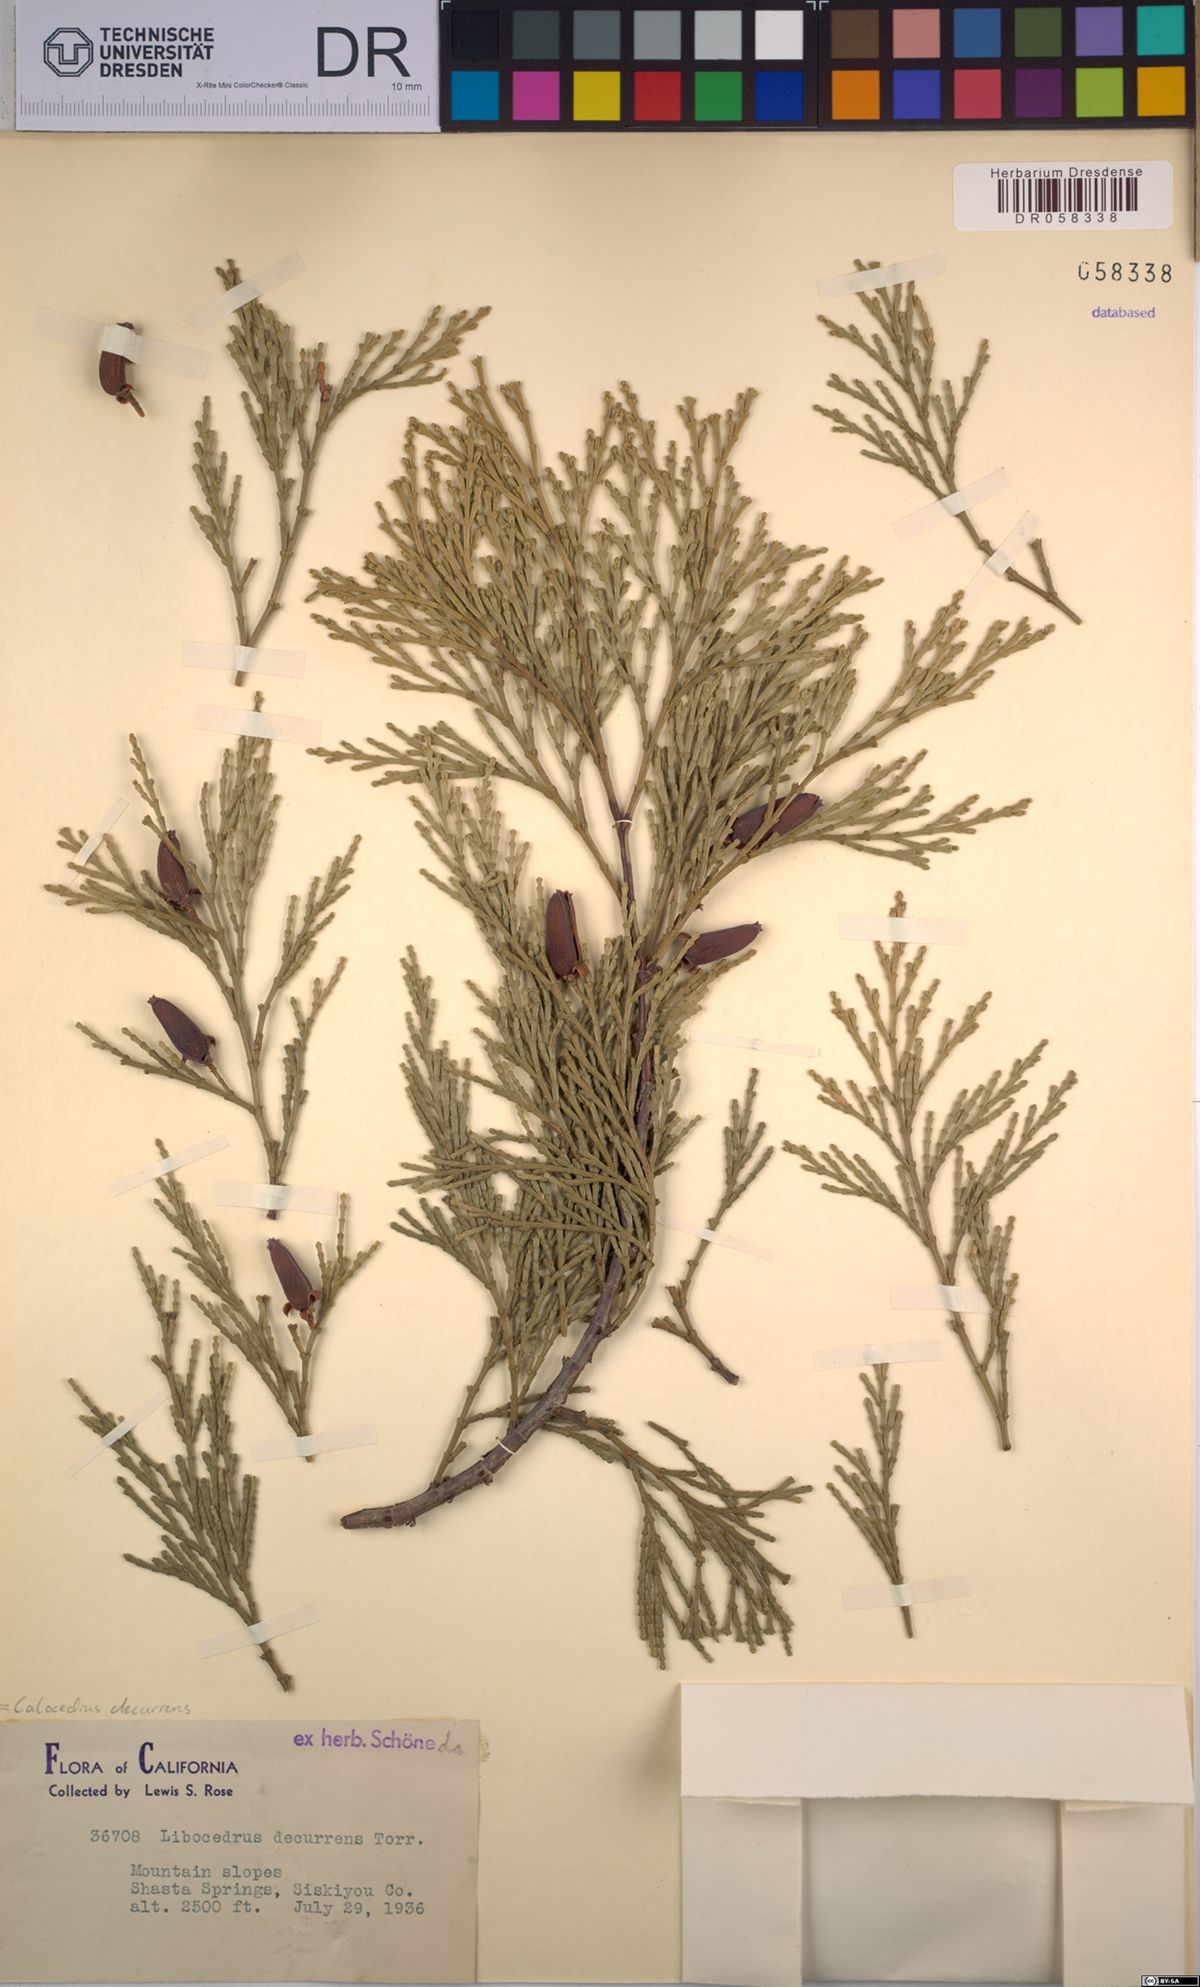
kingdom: Plantae
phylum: Tracheophyta
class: Pinopsida
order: Pinales
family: Cupressaceae
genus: Calocedrus
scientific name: Calocedrus decurrens
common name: Californian incense-cedar
